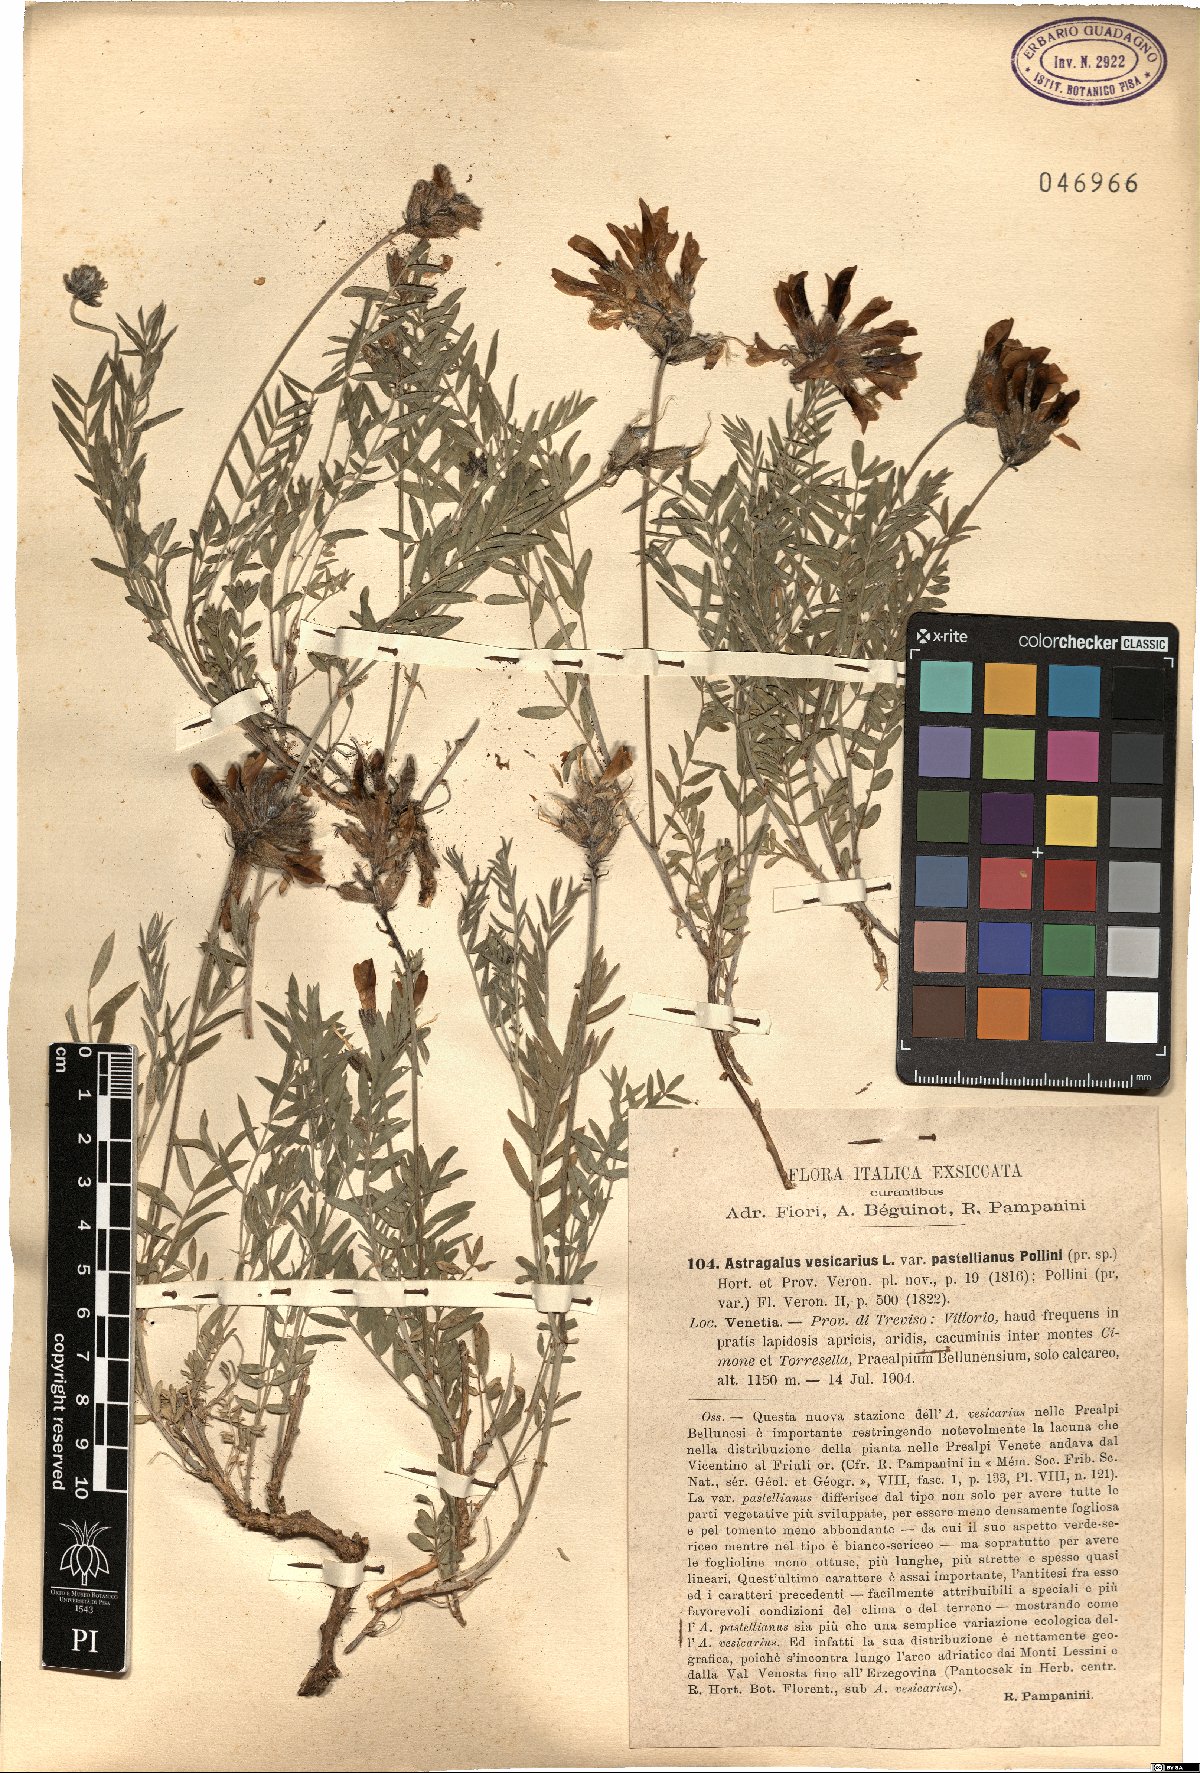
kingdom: Plantae
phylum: Tracheophyta
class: Magnoliopsida
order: Fabales
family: Fabaceae
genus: Astragalus
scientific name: Astragalus vesicarius
